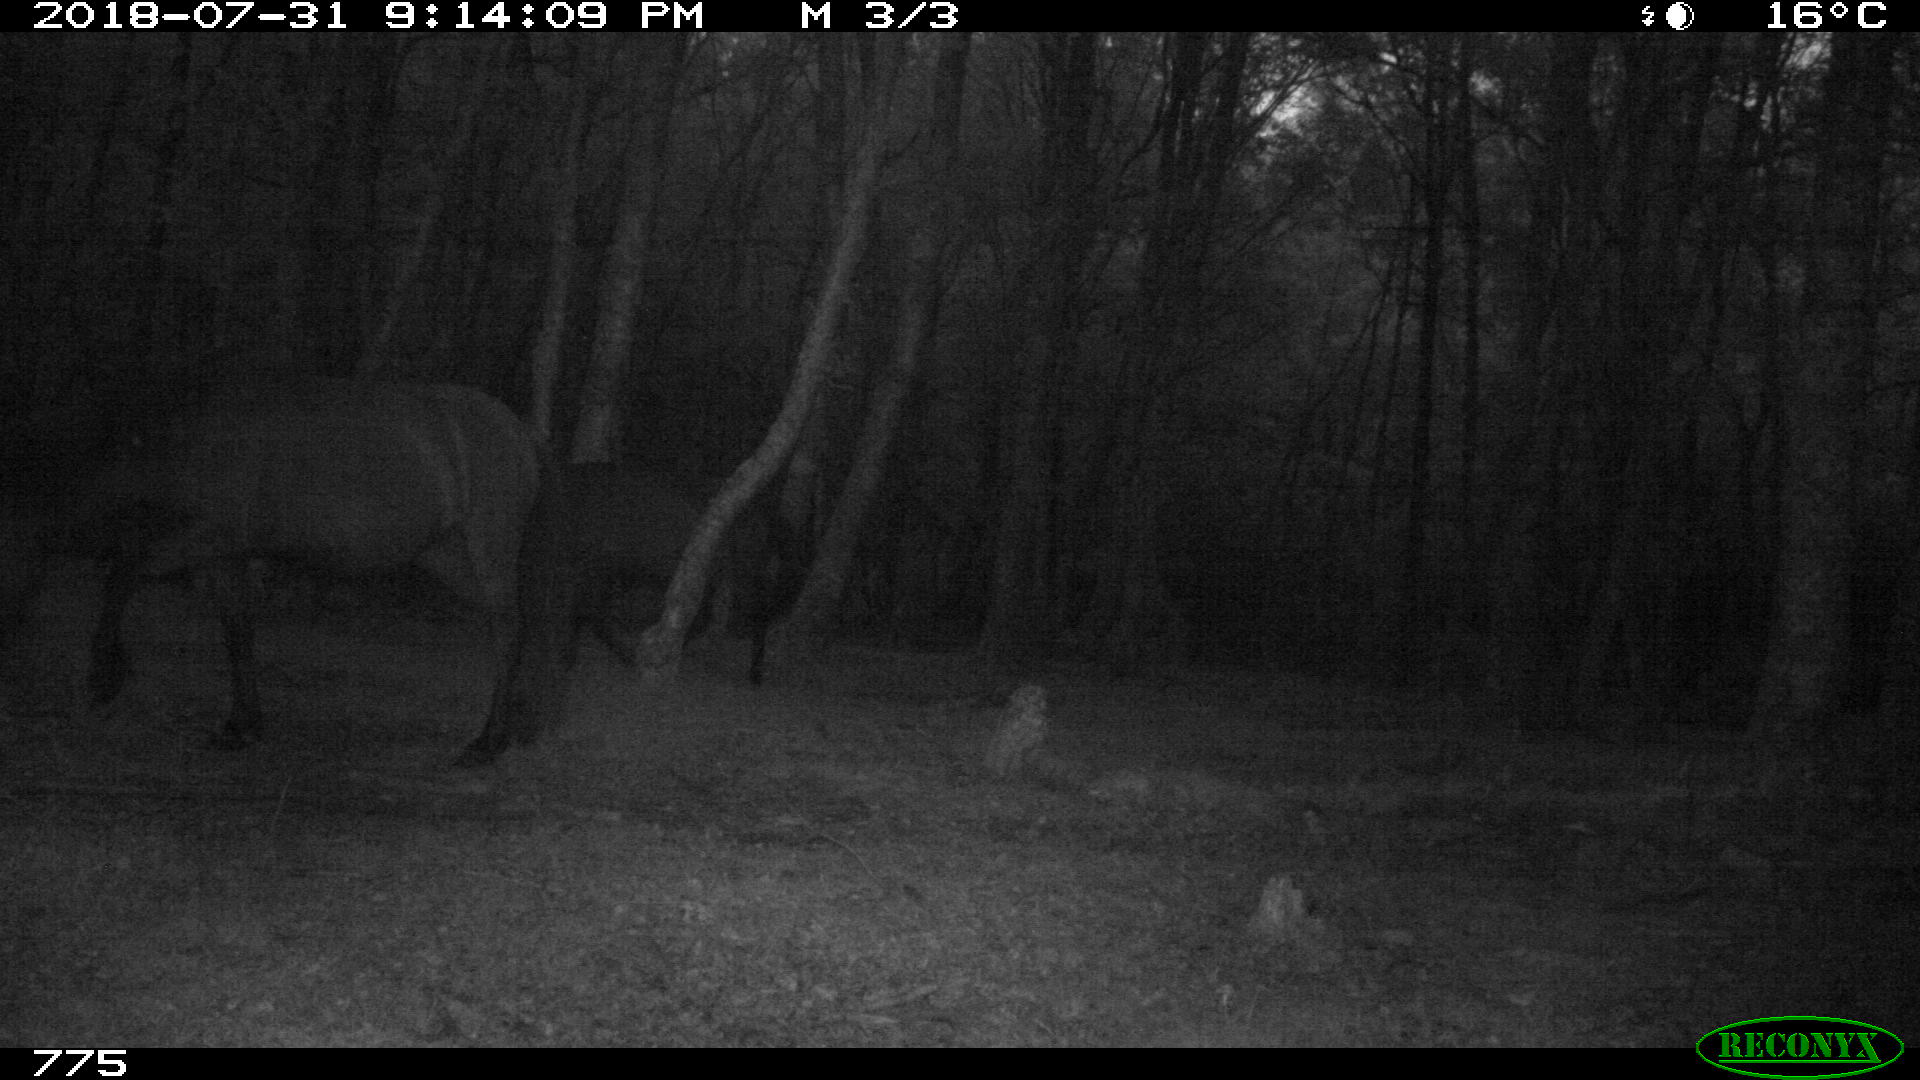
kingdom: Animalia
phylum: Chordata
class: Mammalia
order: Perissodactyla
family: Equidae
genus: Equus
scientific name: Equus caballus
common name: Horse
